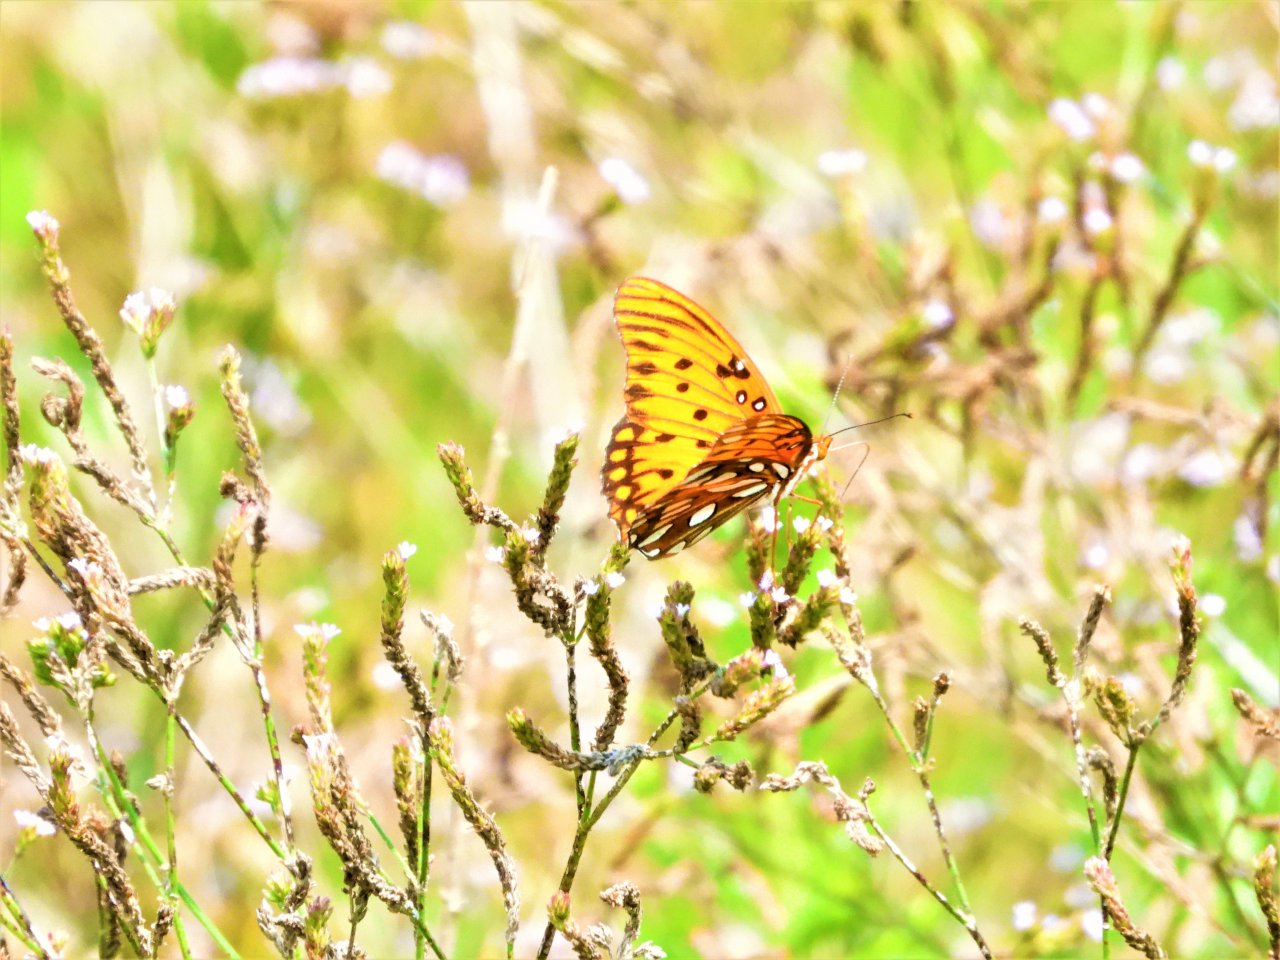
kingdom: Animalia
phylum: Arthropoda
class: Insecta
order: Lepidoptera
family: Nymphalidae
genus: Dione
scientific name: Dione vanillae
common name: Gulf Fritillary
